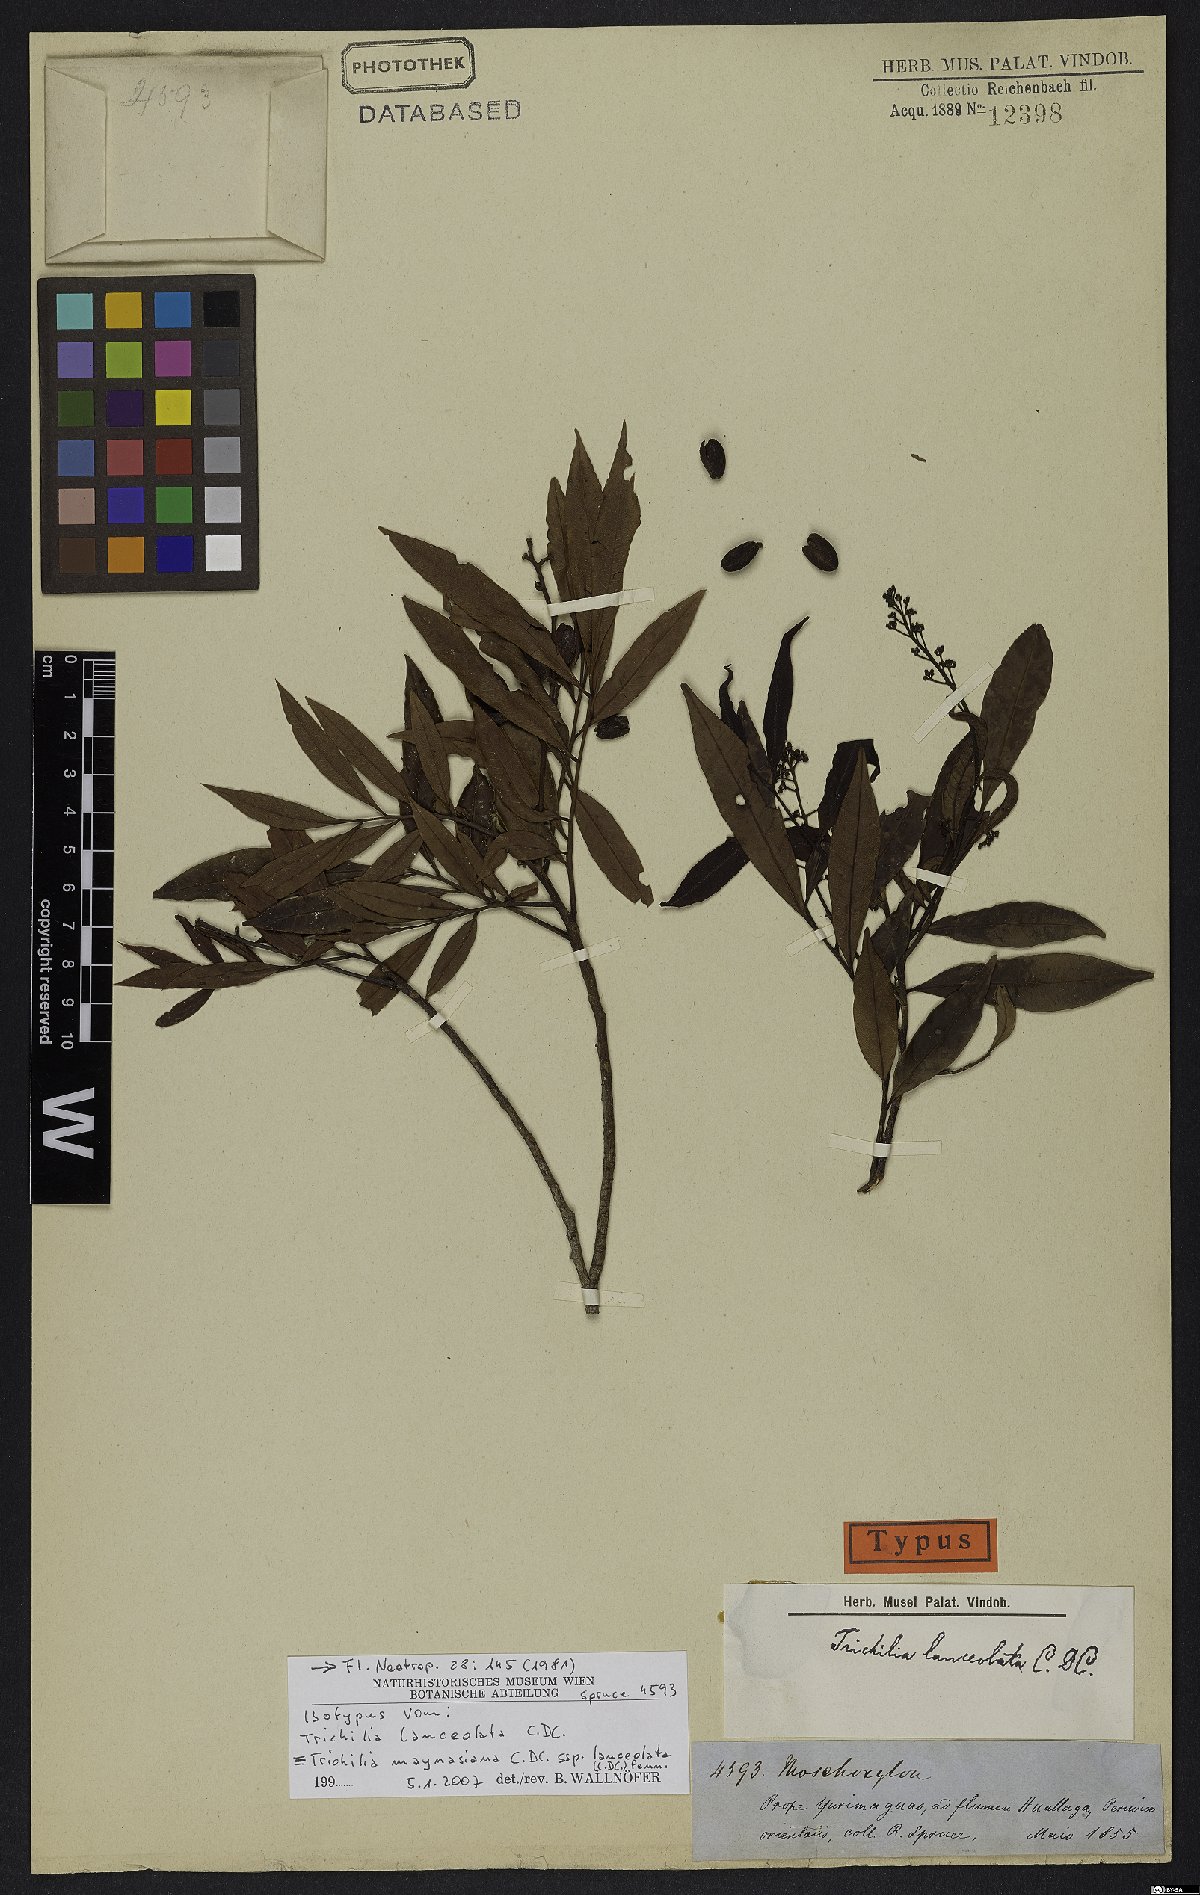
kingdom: Plantae
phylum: Tracheophyta
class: Magnoliopsida
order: Sapindales
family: Meliaceae
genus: Trichilia
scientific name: Trichilia tuberculata
